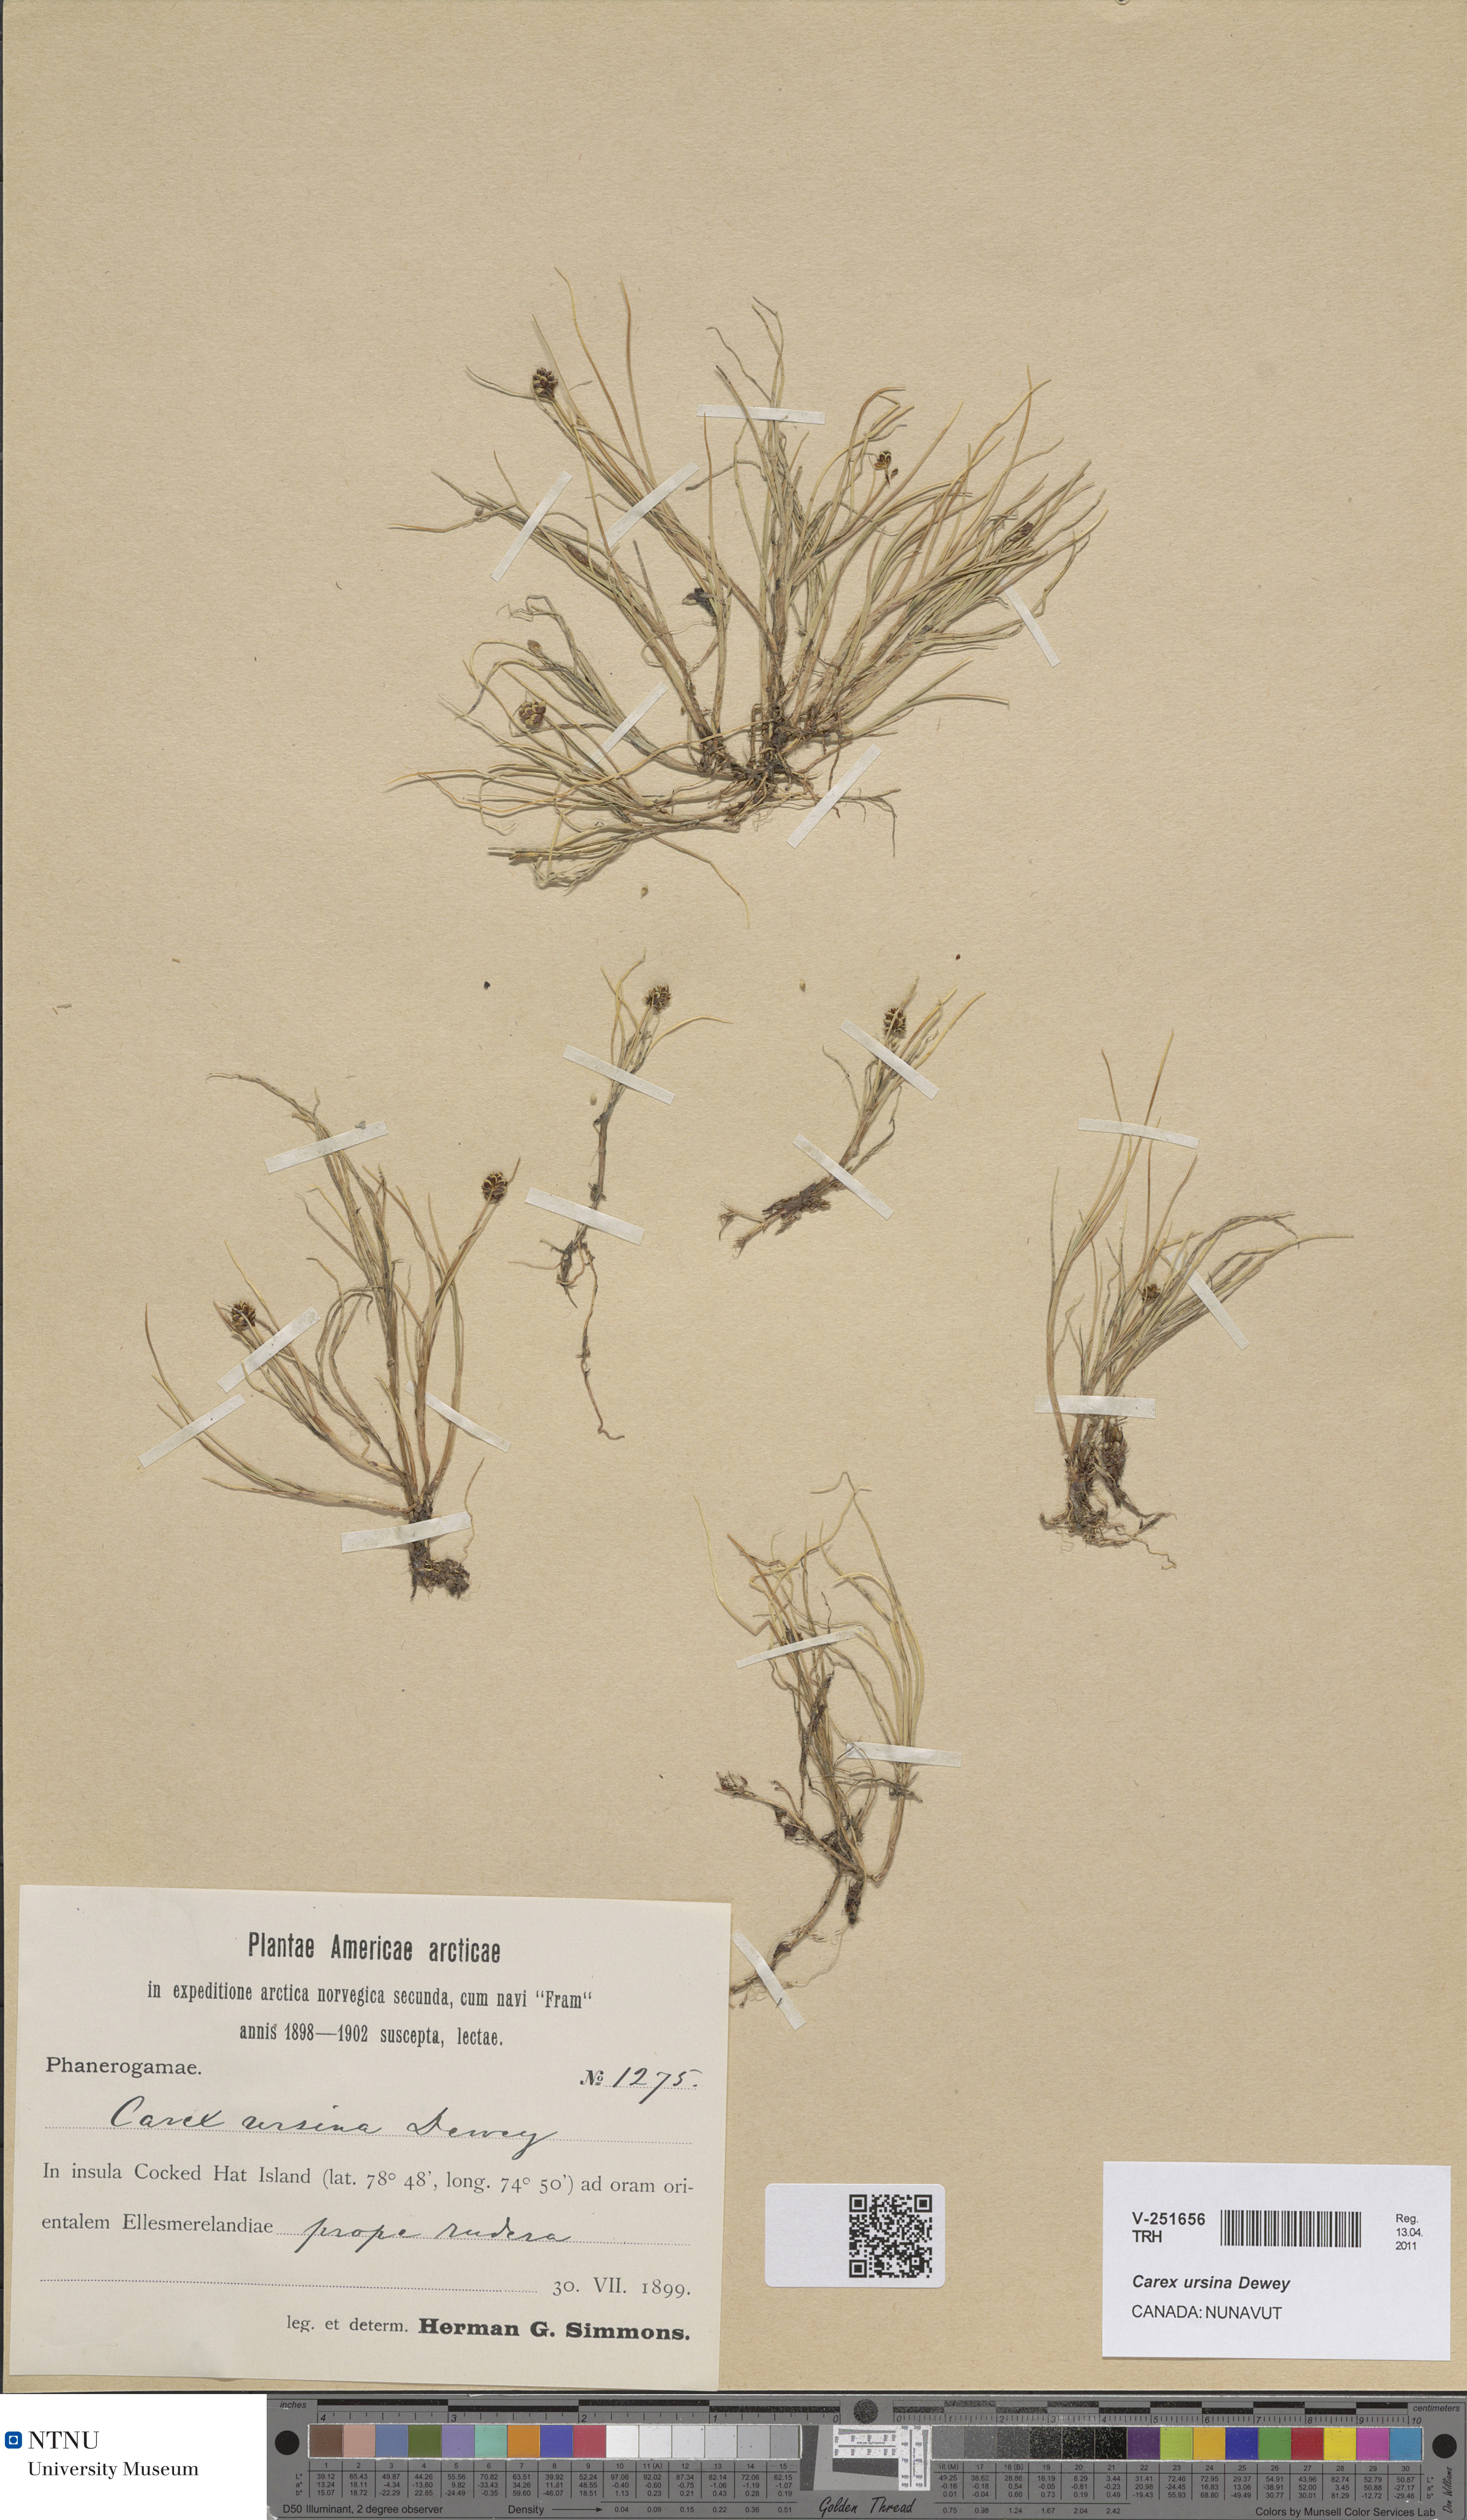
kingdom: Plantae
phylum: Tracheophyta
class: Liliopsida
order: Poales
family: Cyperaceae
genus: Carex
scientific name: Carex ursina
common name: Bear sedge
